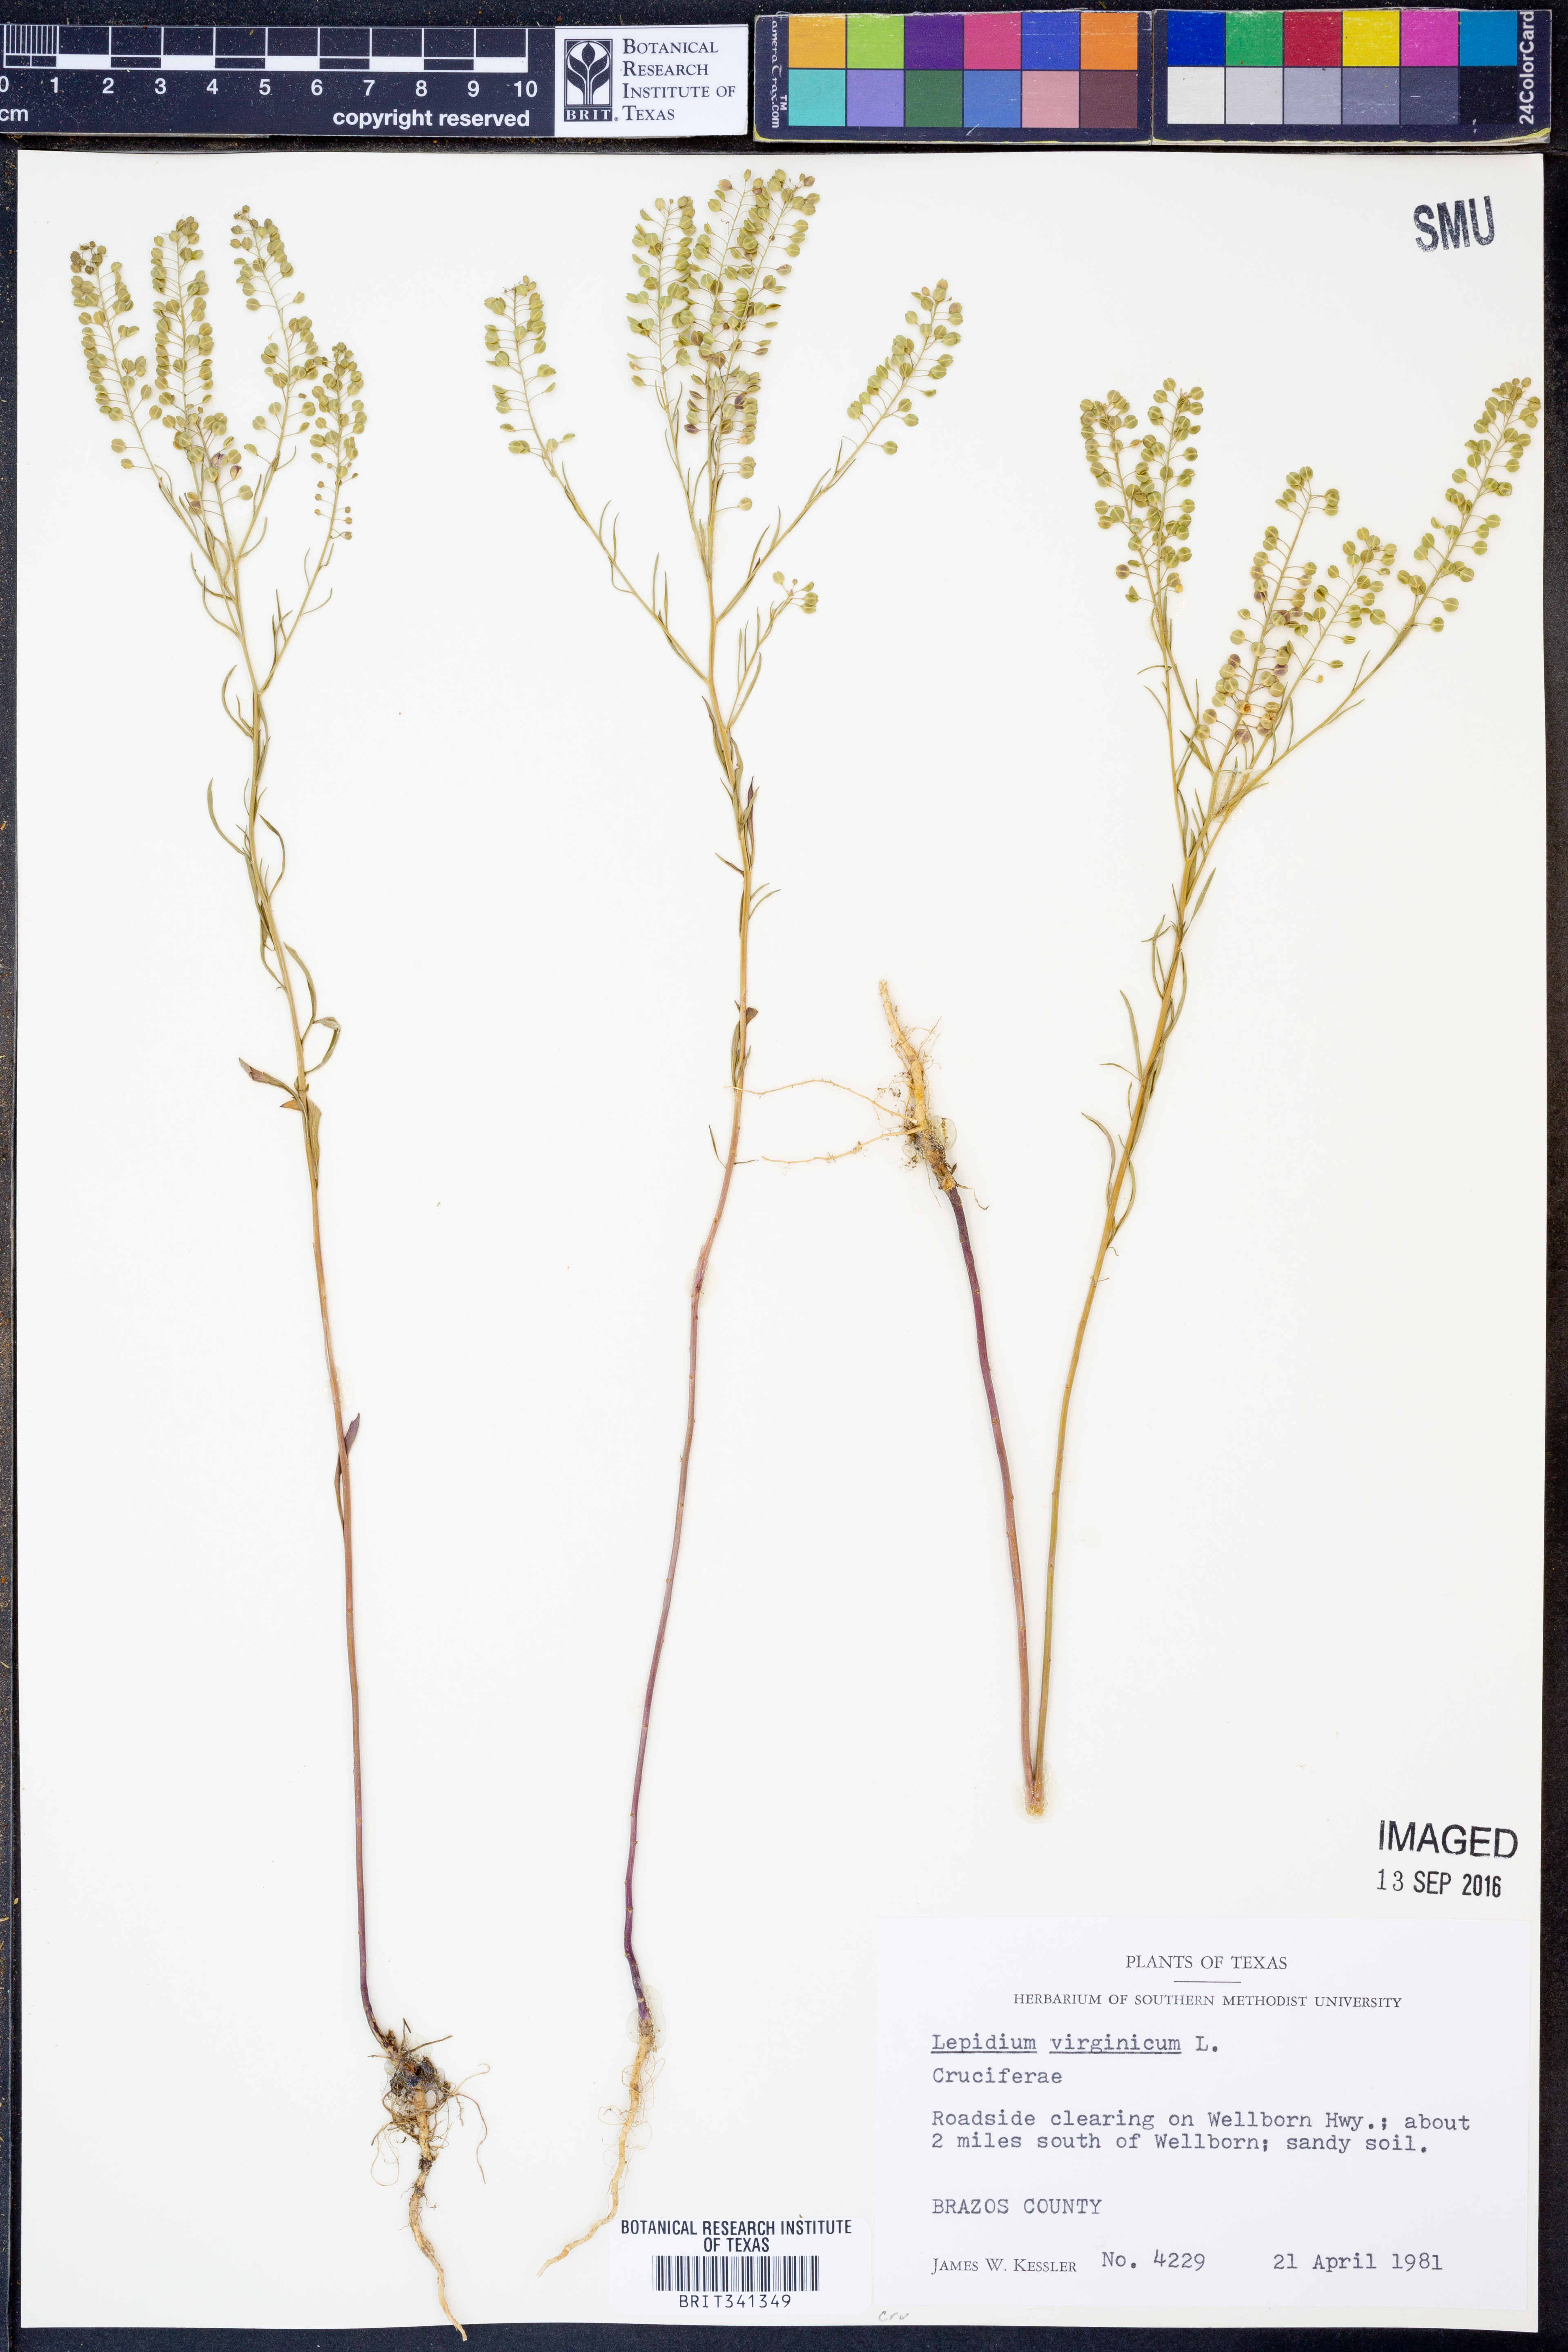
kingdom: Plantae
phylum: Tracheophyta
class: Magnoliopsida
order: Brassicales
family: Brassicaceae
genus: Lepidium
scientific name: Lepidium virginicum
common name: Least pepperwort
